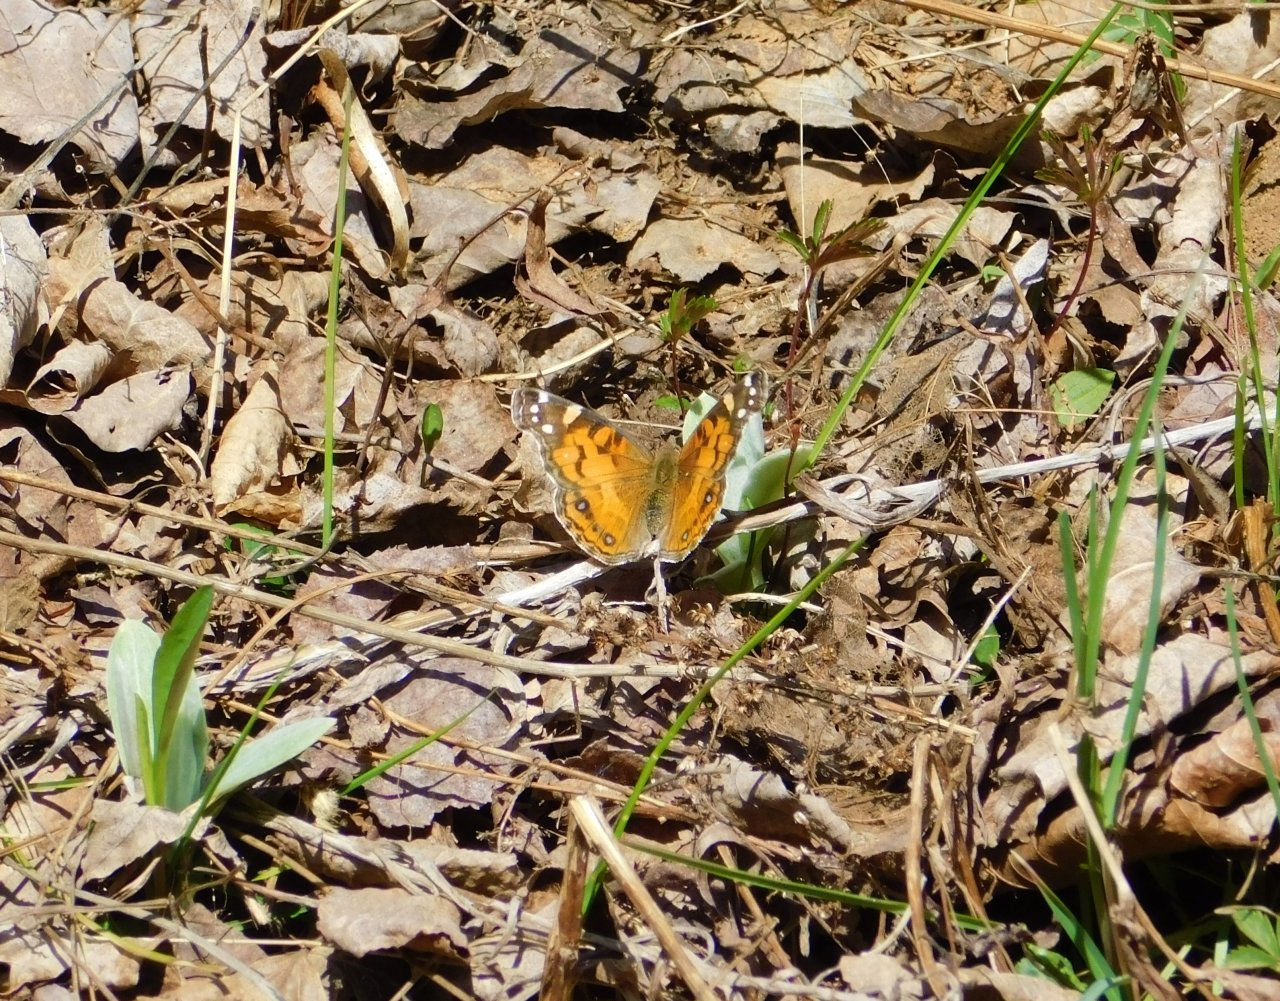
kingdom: Animalia
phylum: Arthropoda
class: Insecta
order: Lepidoptera
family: Nymphalidae
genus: Vanessa
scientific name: Vanessa virginiensis
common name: American Lady
